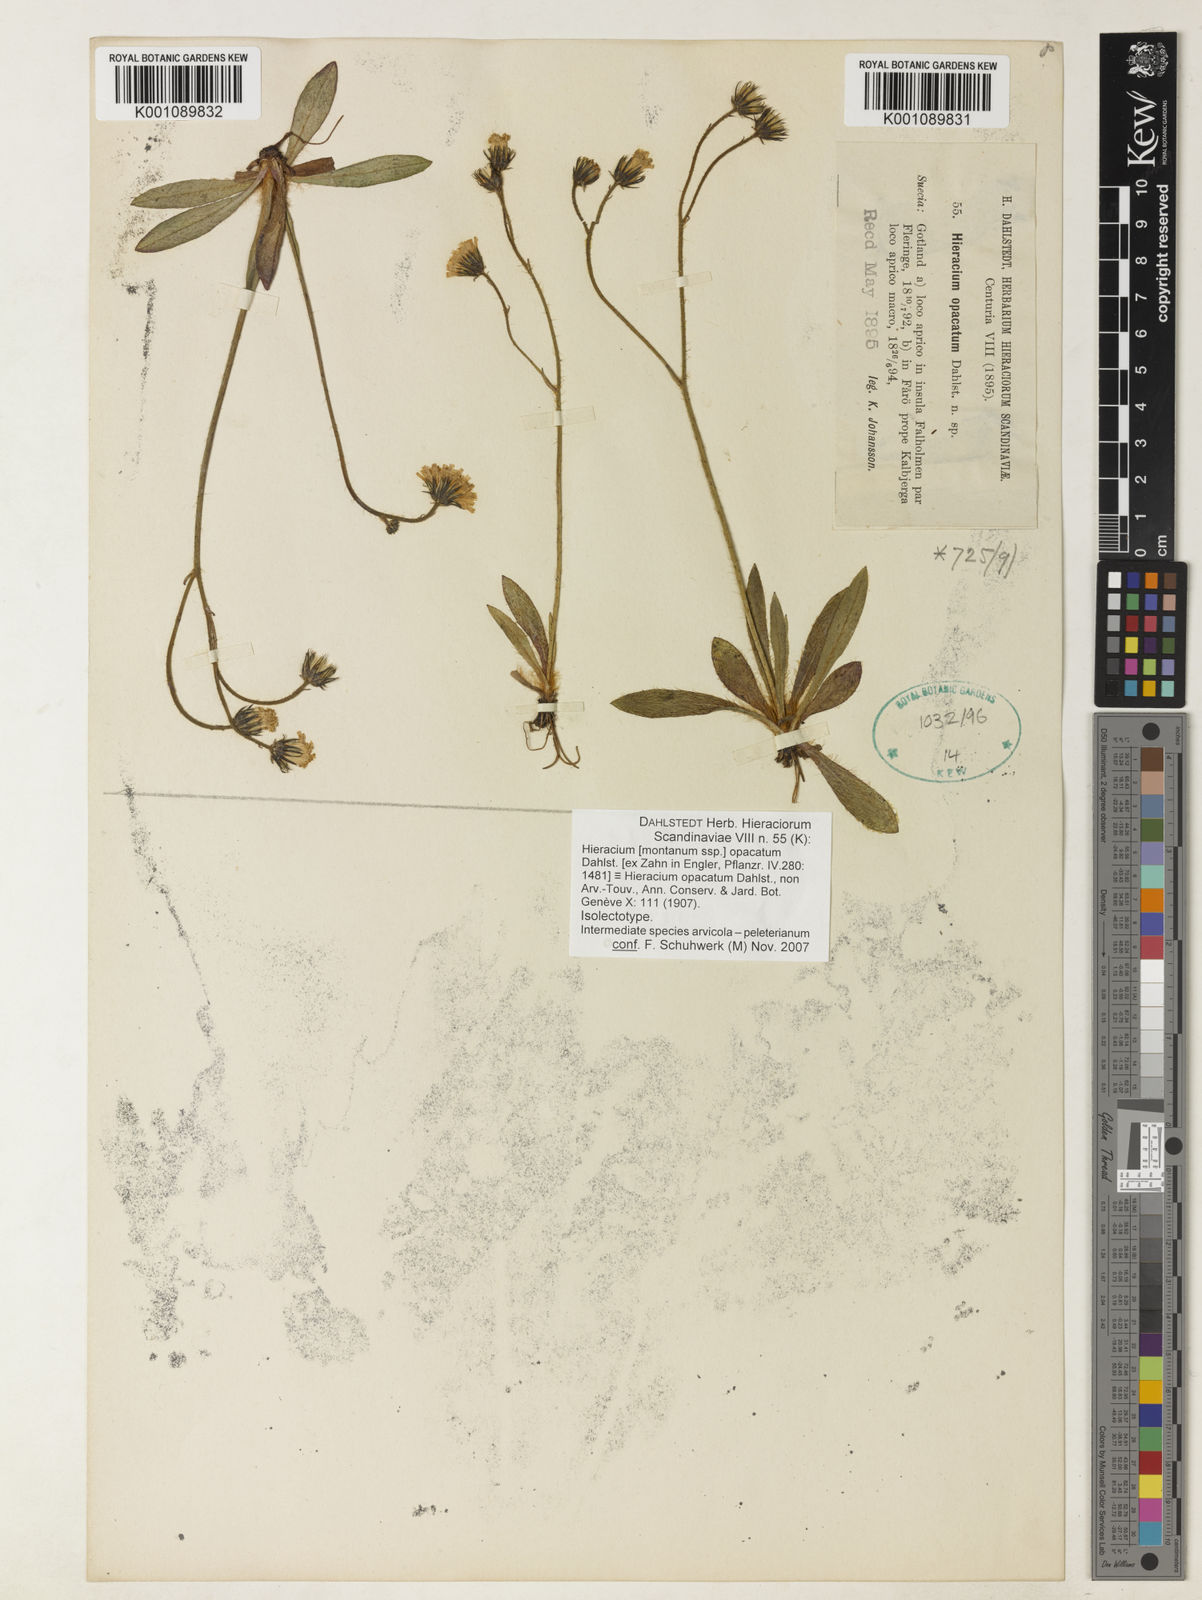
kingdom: Plantae
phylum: Tracheophyta
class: Magnoliopsida
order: Asterales
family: Asteraceae
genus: Hieracium
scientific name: Hieracium
